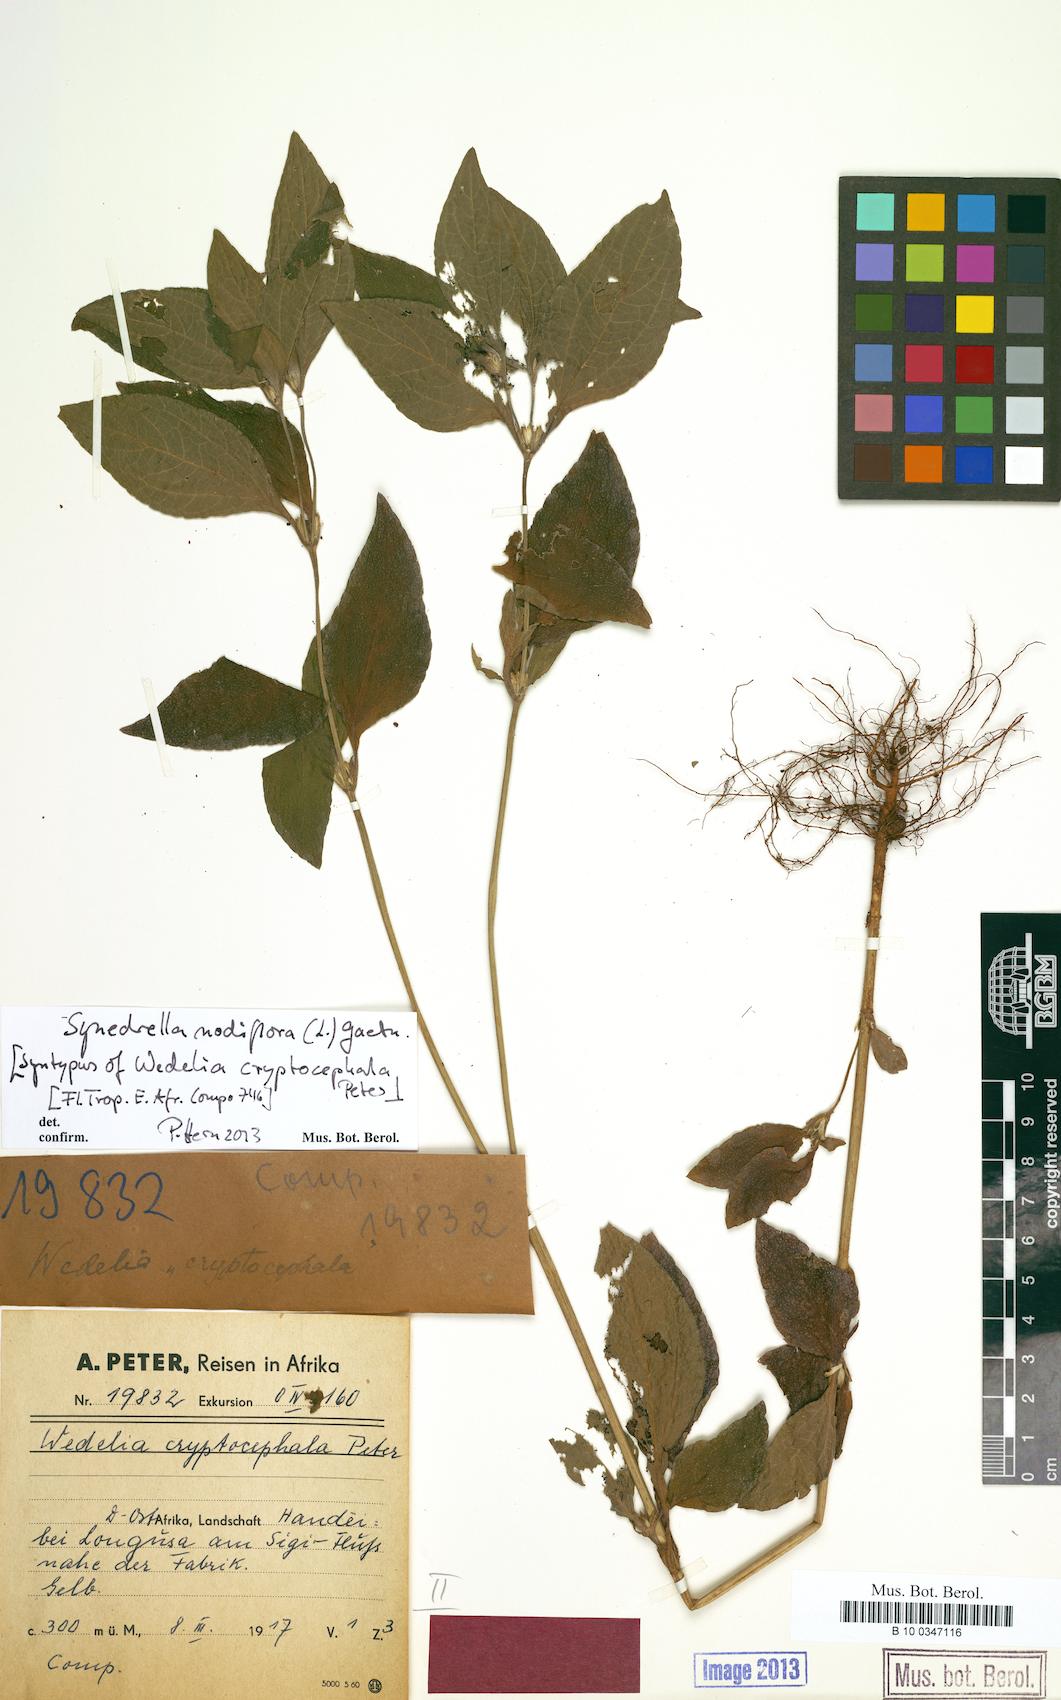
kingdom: Plantae
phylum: Tracheophyta
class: Magnoliopsida
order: Asterales
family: Asteraceae
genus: Synedrella
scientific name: Synedrella nodiflora
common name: Nodeweed
